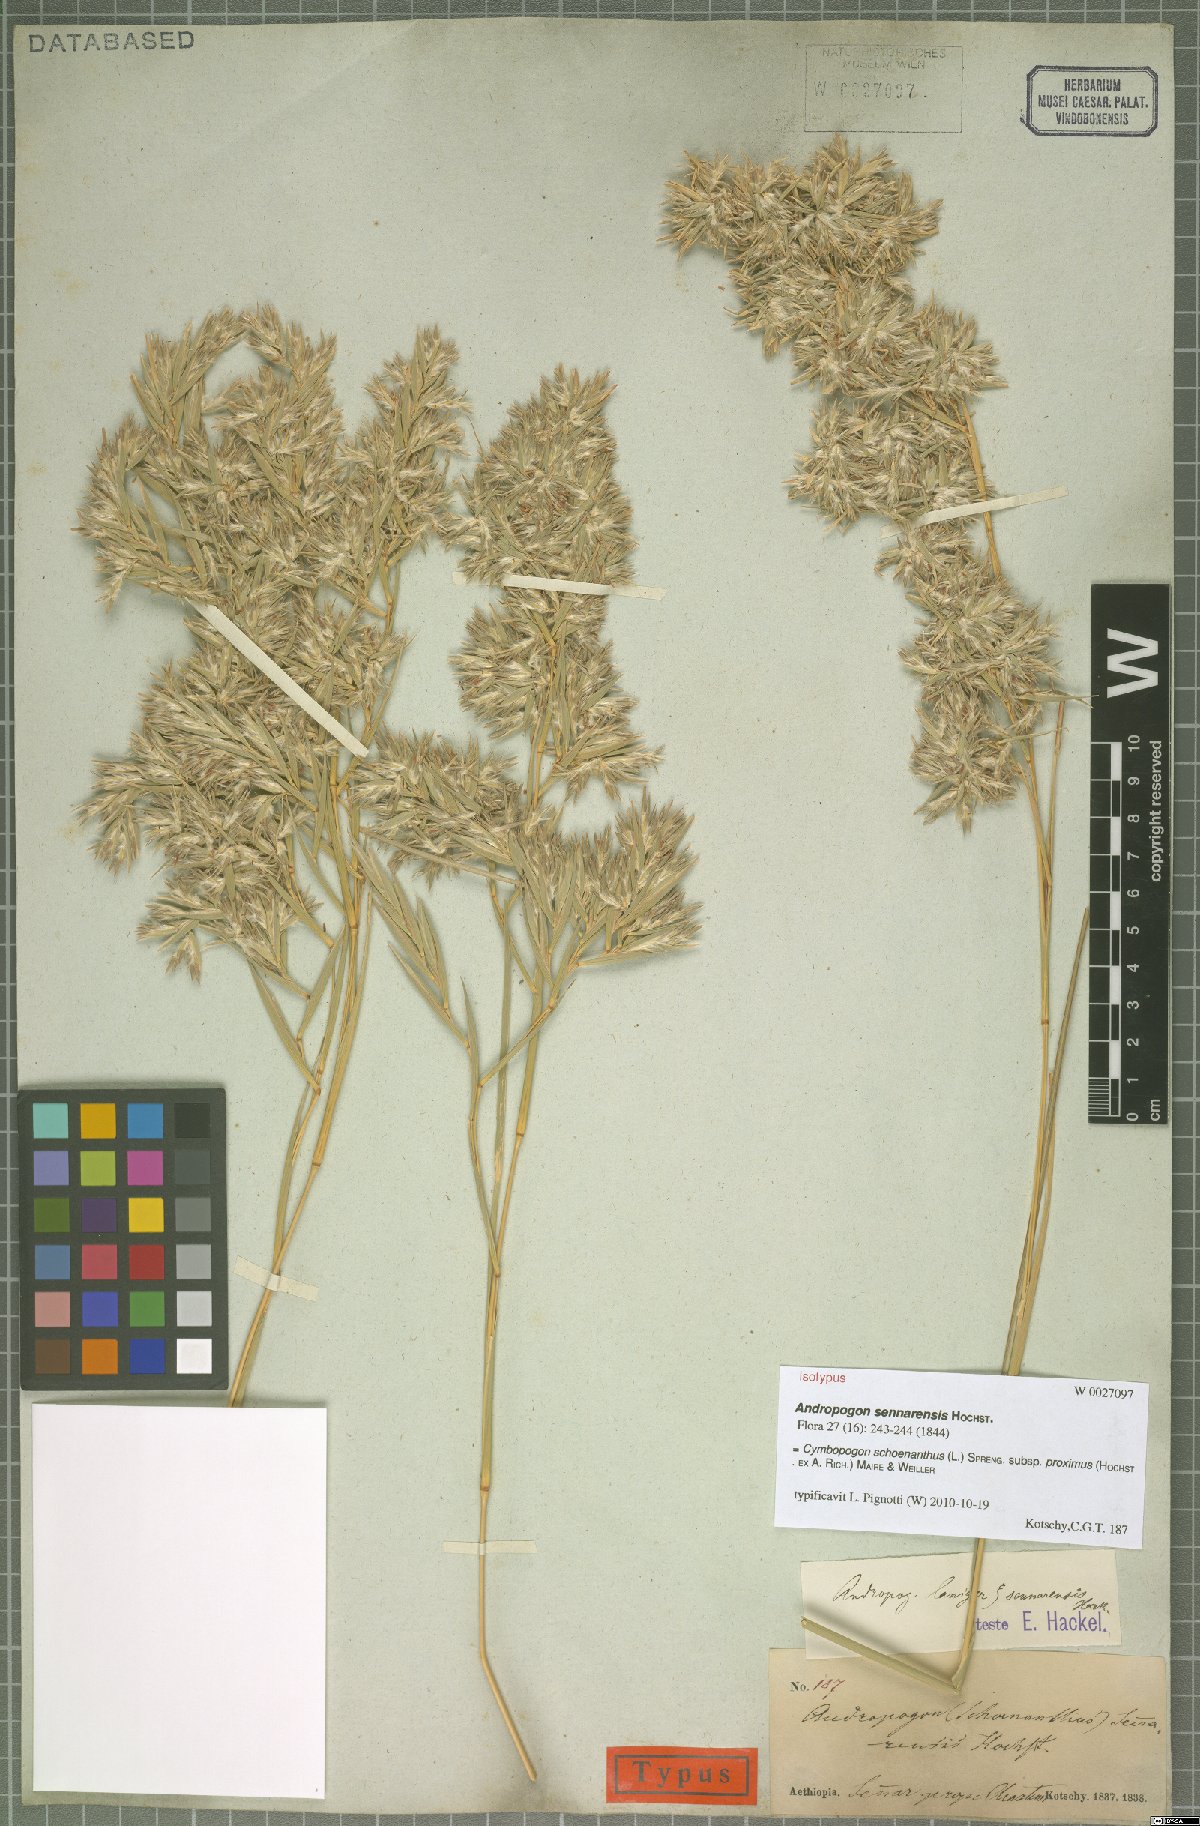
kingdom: Plantae
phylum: Tracheophyta
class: Liliopsida
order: Poales
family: Poaceae
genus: Cymbopogon
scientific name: Cymbopogon schoenanthus
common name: Geranium grass
